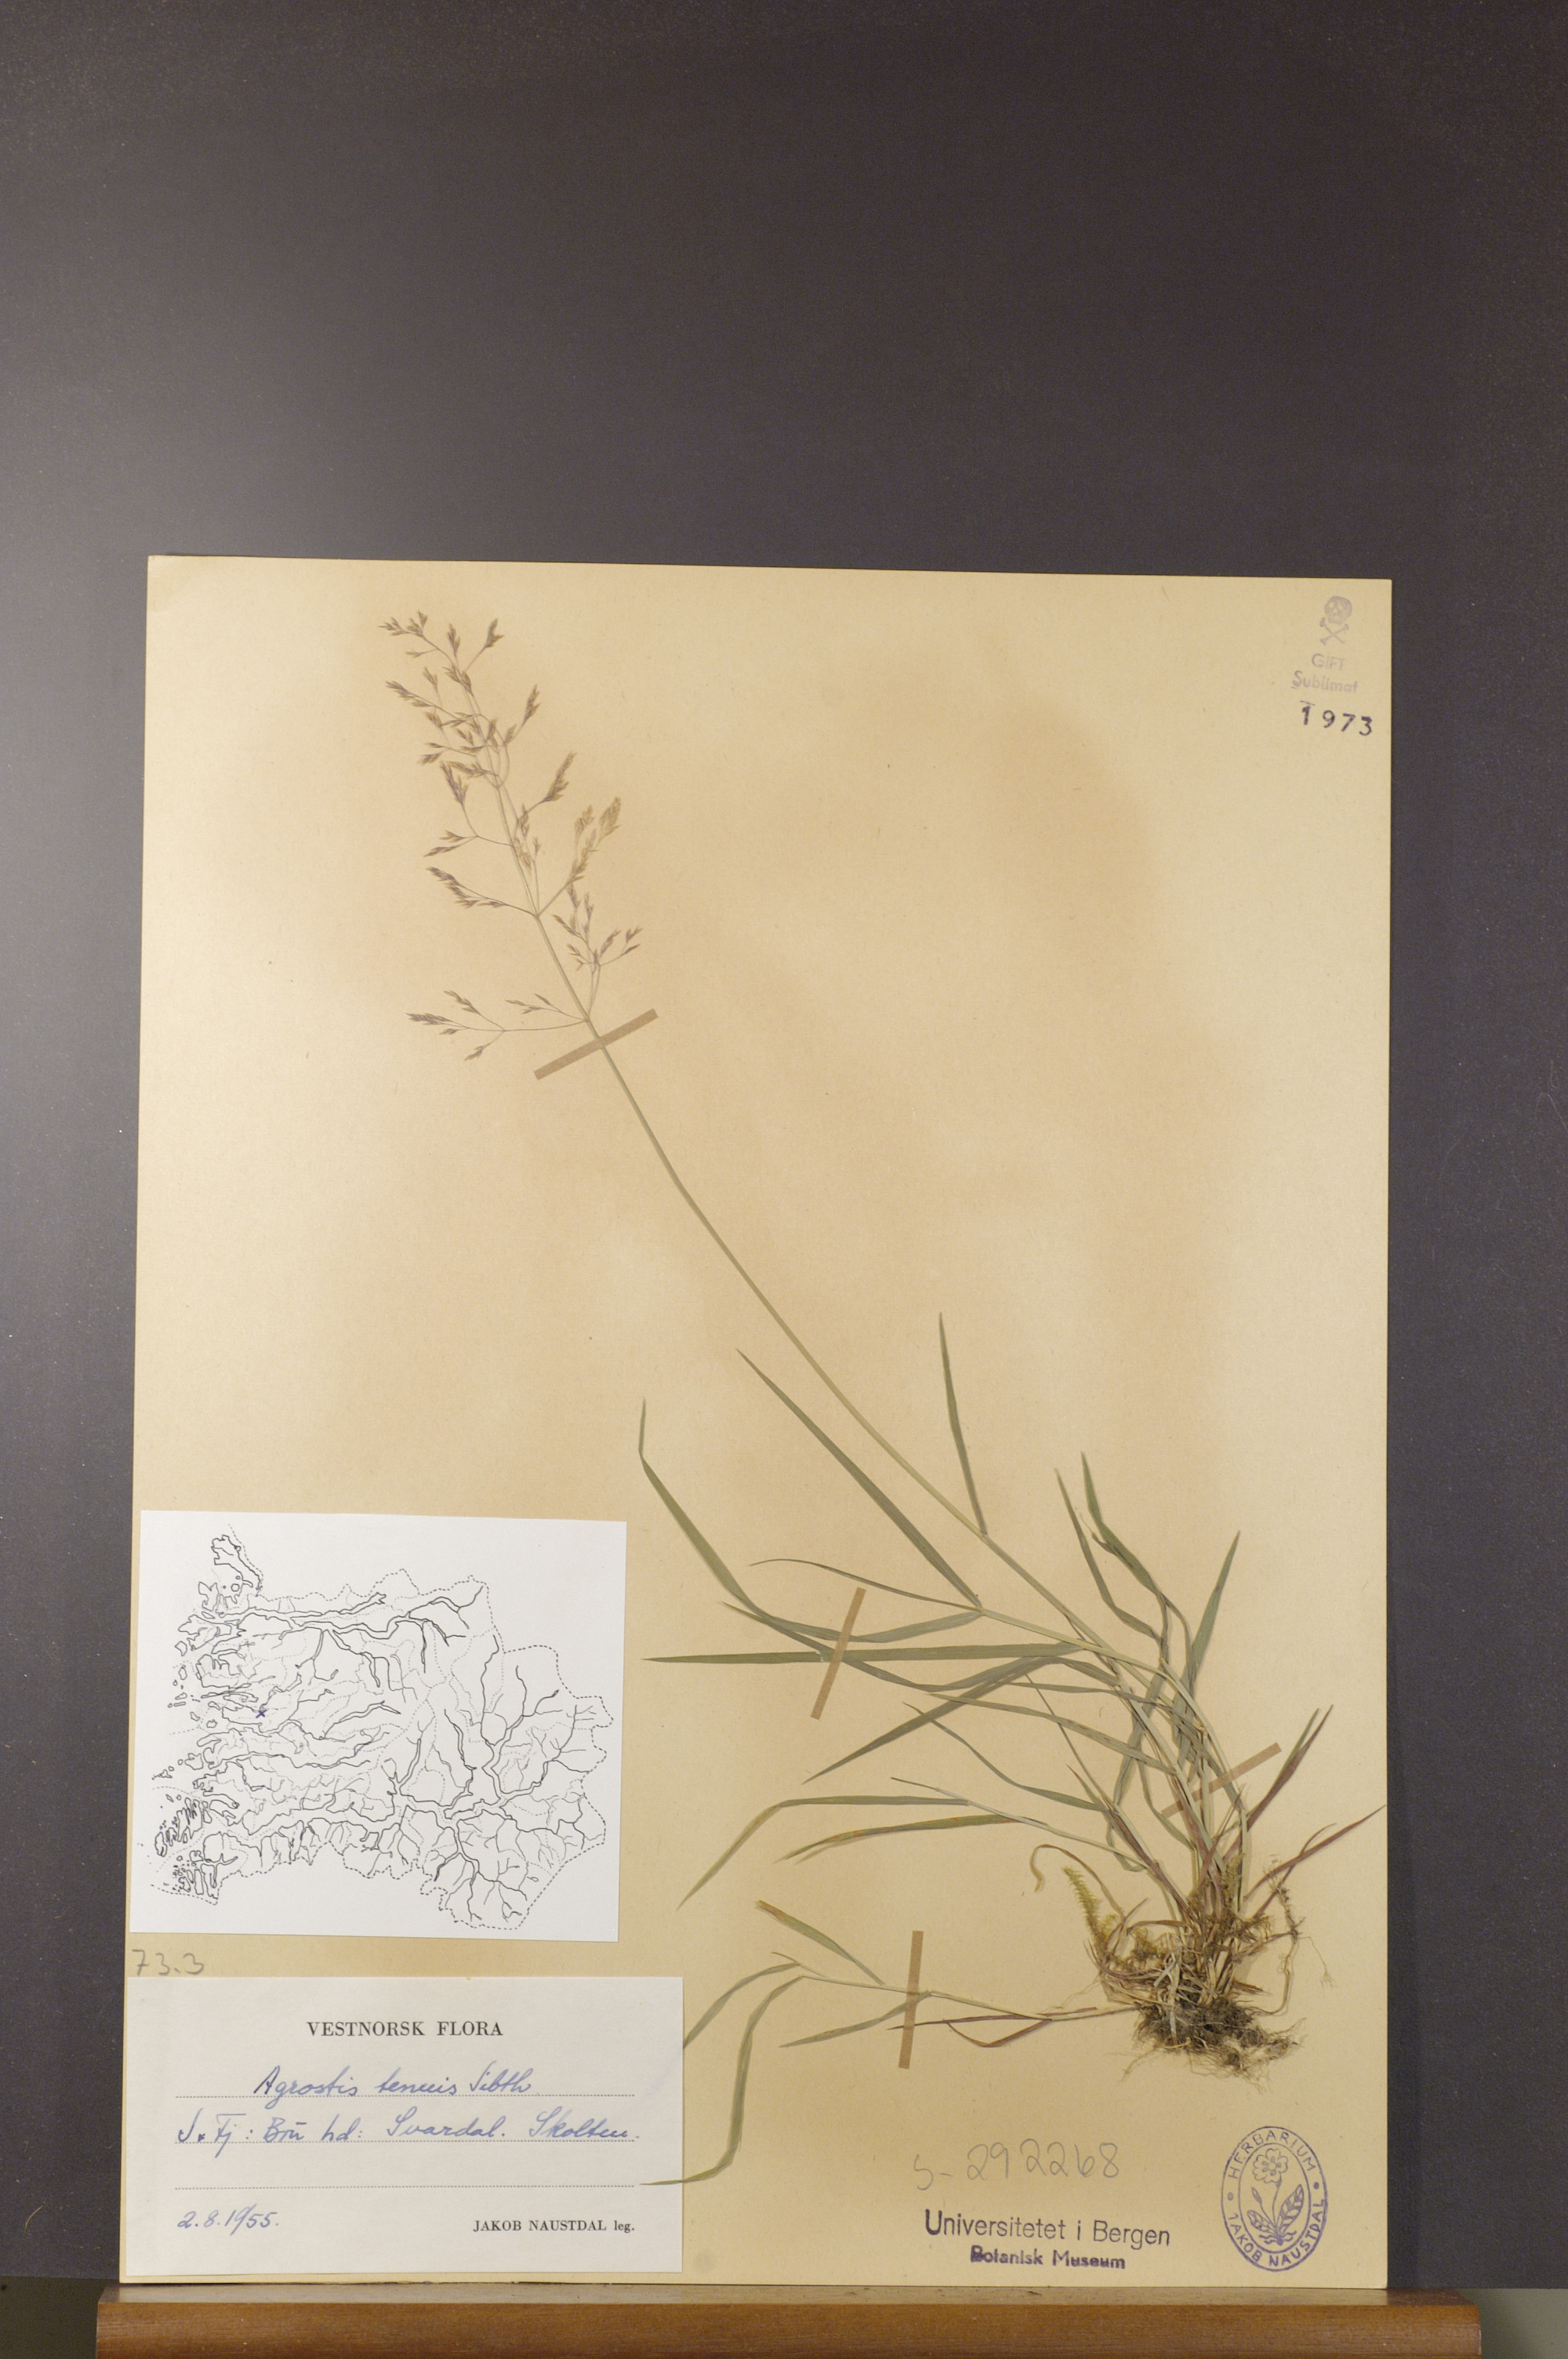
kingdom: Plantae
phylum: Tracheophyta
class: Liliopsida
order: Poales
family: Poaceae
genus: Agrostis
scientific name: Agrostis capillaris
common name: Colonial bentgrass
